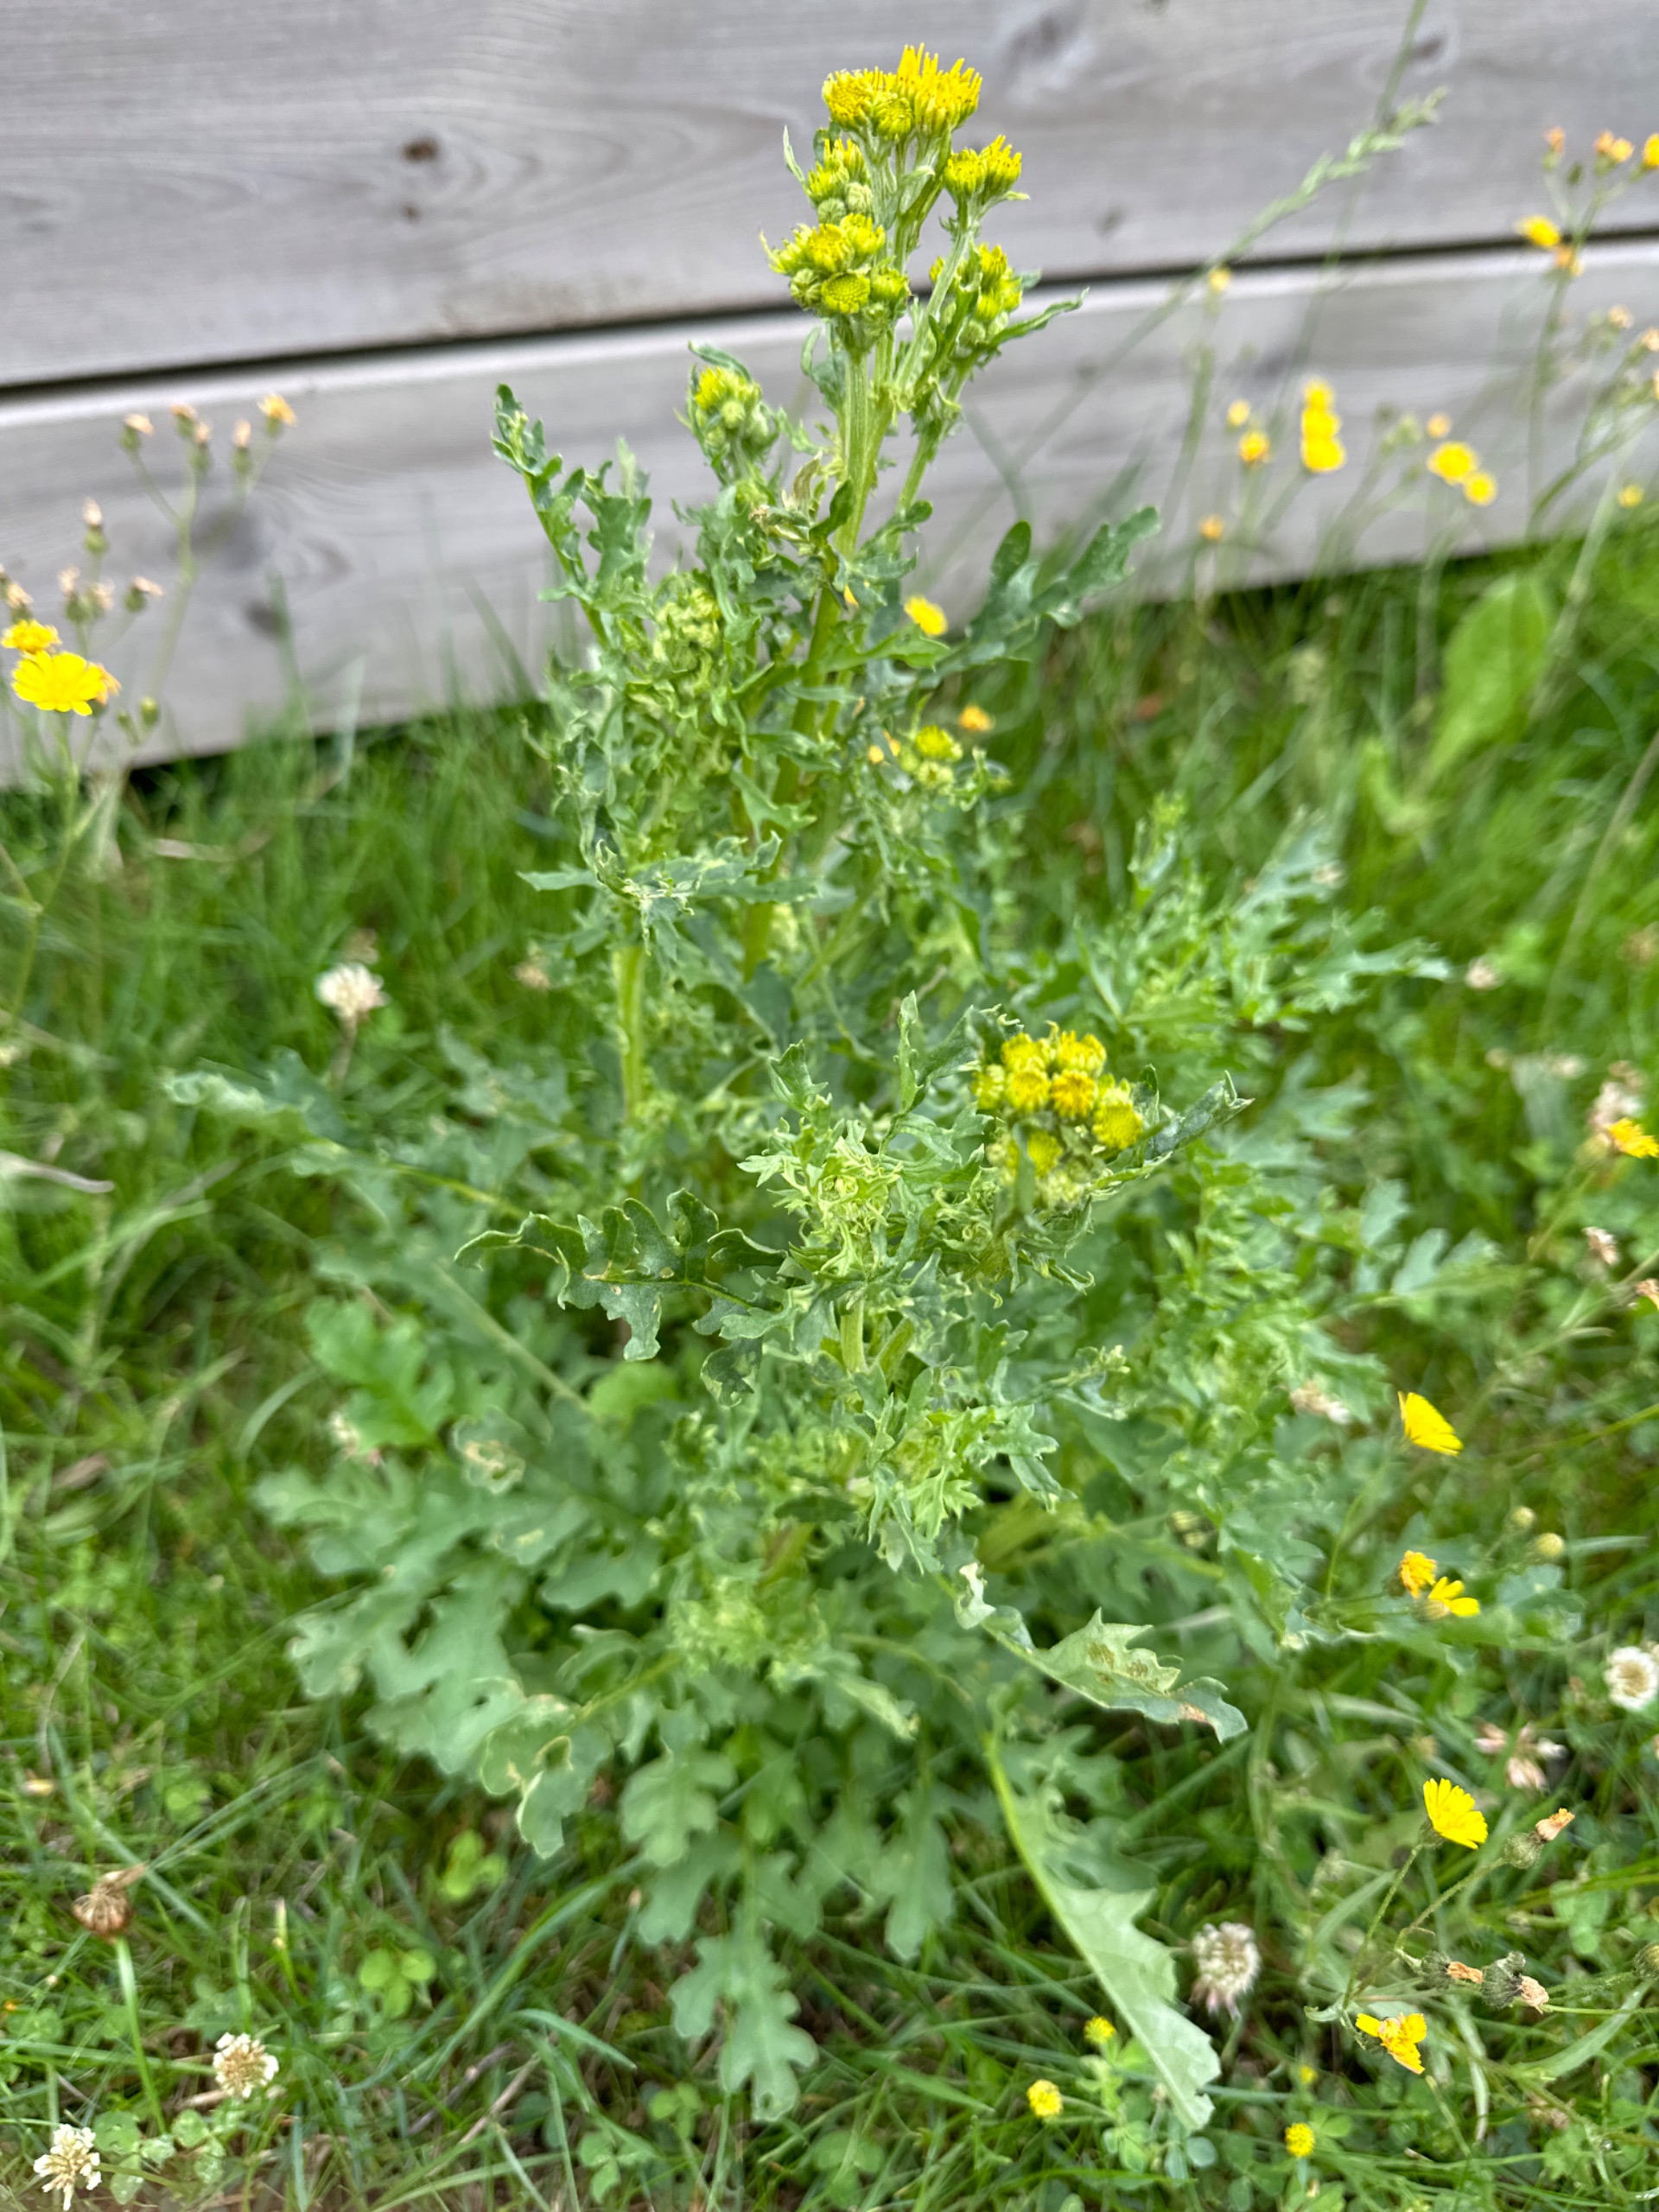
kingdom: Plantae
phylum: Tracheophyta
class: Magnoliopsida
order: Asterales
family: Asteraceae
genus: Jacobaea
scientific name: Jacobaea vulgaris
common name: Eng-brandbæger
